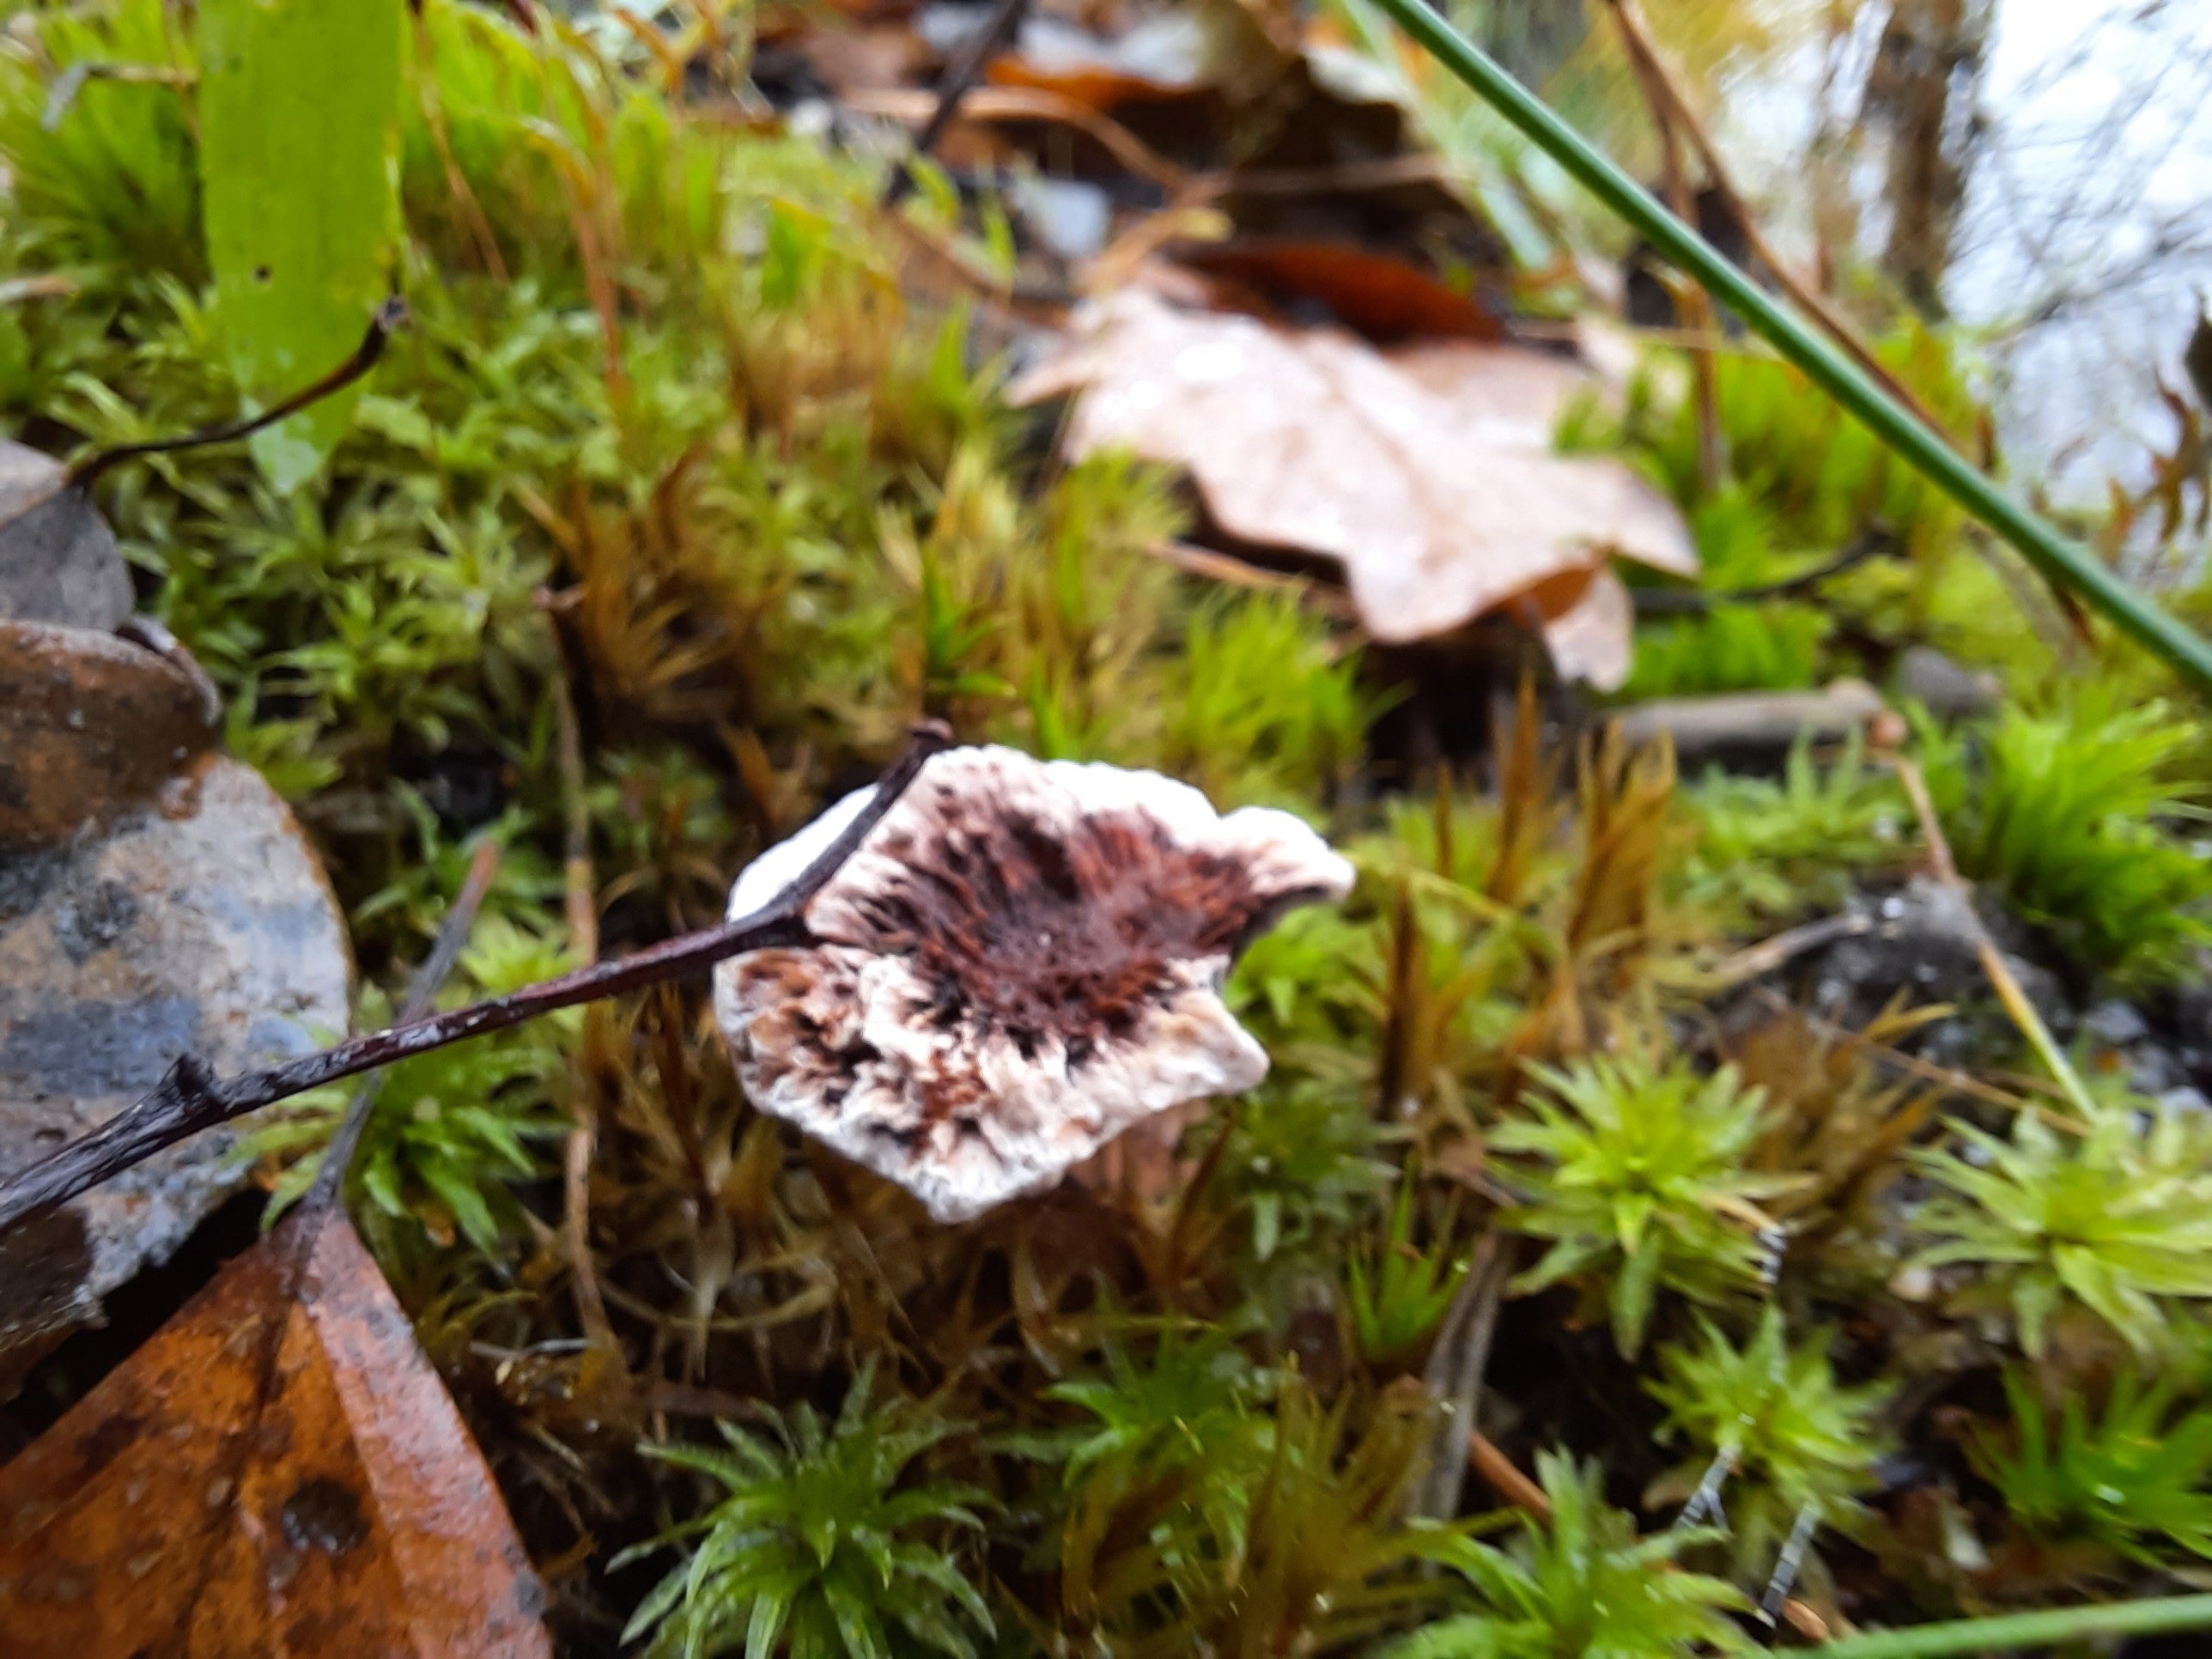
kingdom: Fungi
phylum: Basidiomycota
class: Agaricomycetes
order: Thelephorales
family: Bankeraceae
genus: Hydnellum
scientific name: Hydnellum
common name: korkpigsvamp
